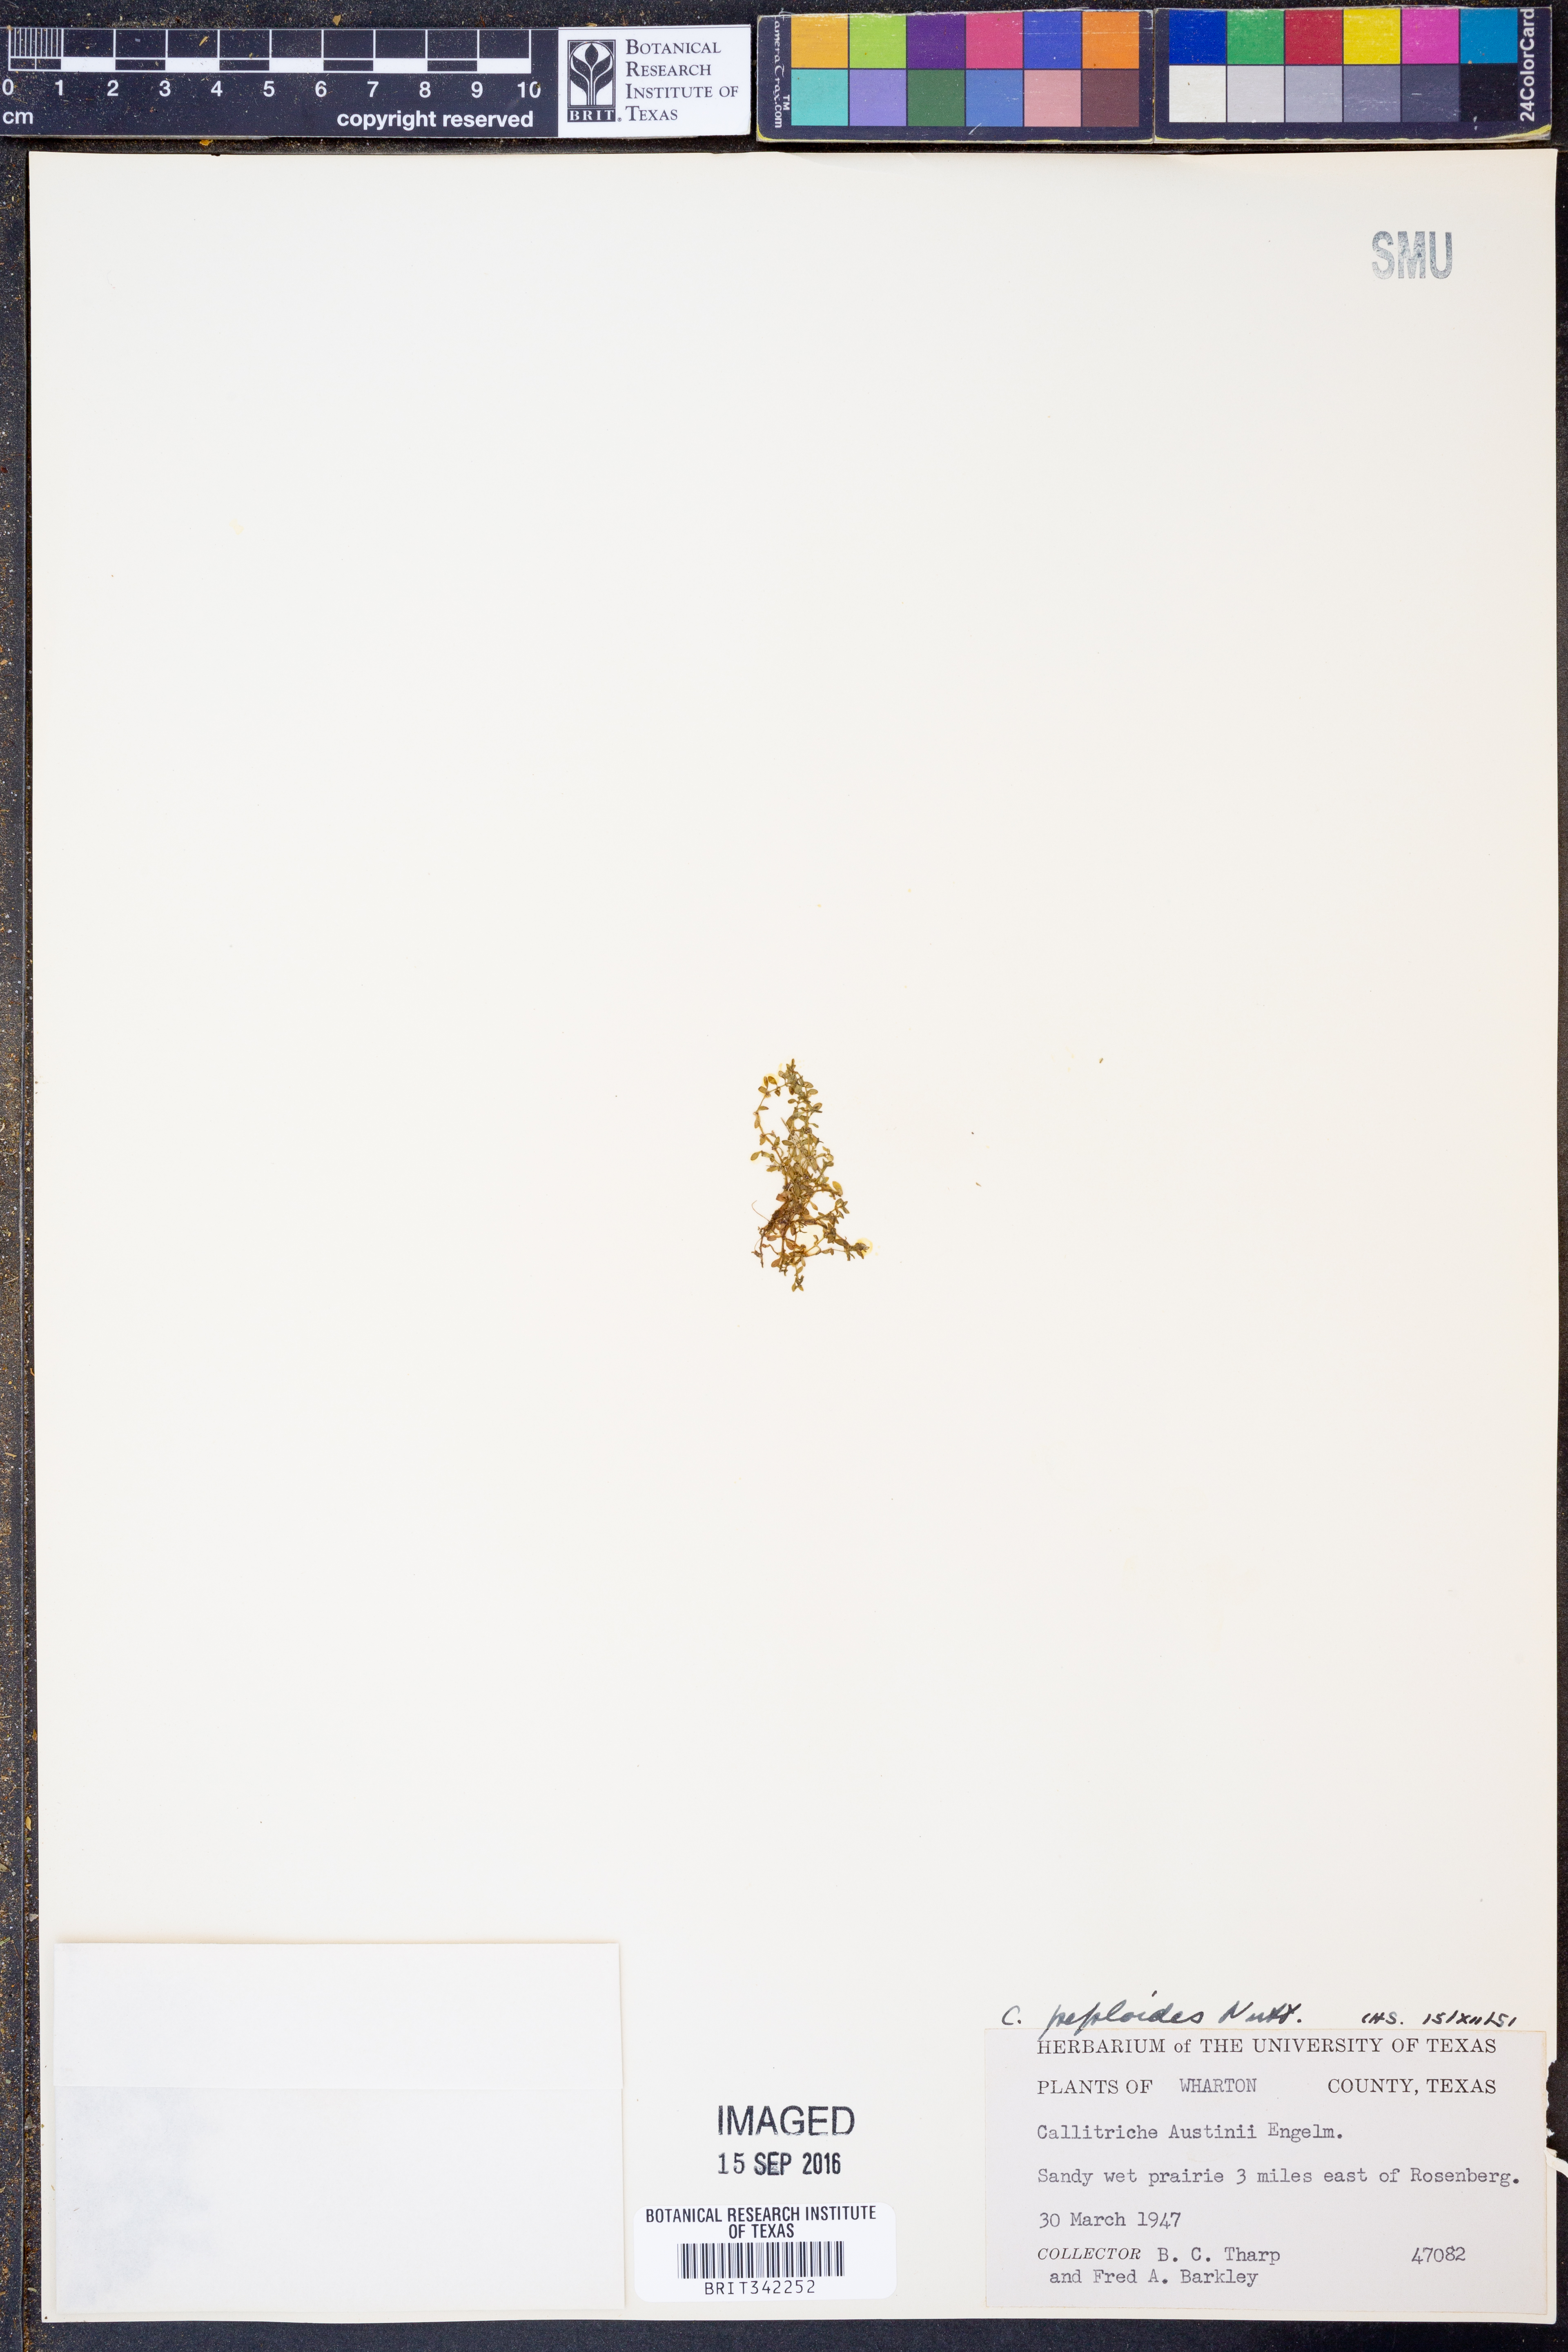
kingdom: Plantae
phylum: Tracheophyta
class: Magnoliopsida
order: Lamiales
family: Plantaginaceae
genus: Callitriche
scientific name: Callitriche peploides
